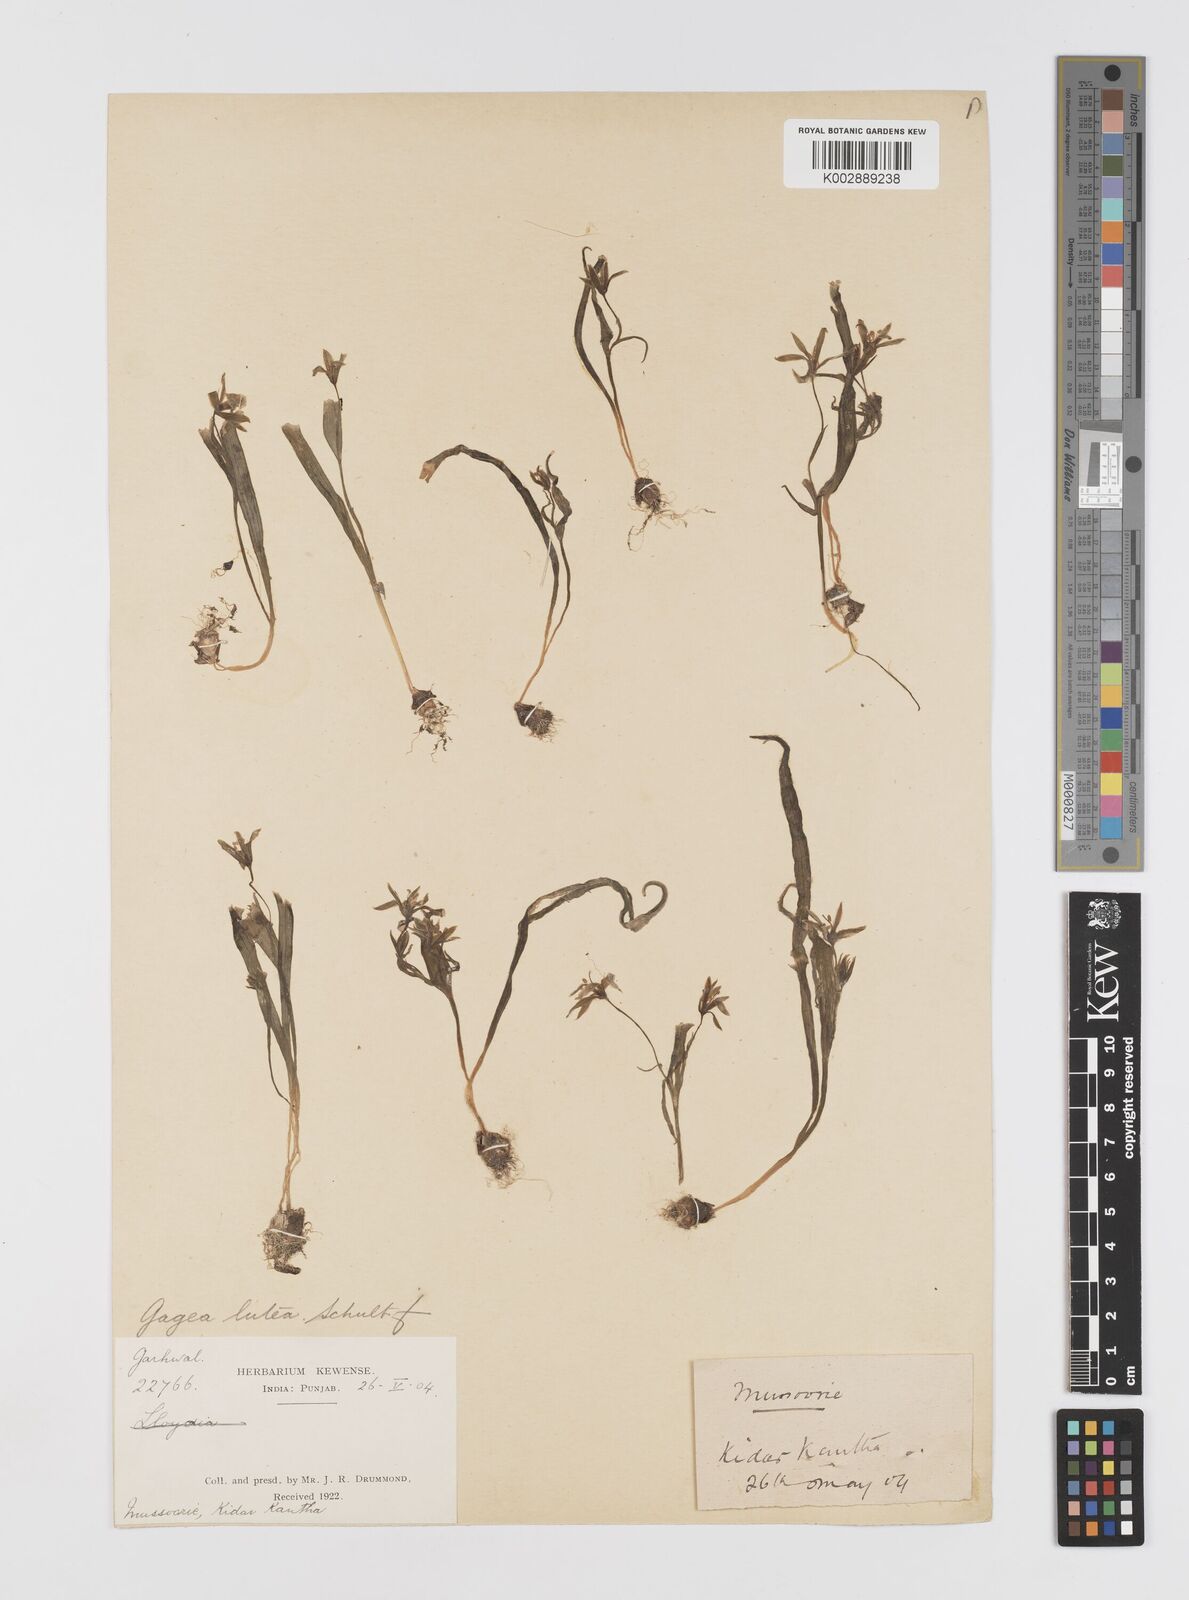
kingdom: Plantae
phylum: Tracheophyta
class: Liliopsida
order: Liliales
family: Liliaceae
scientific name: Liliaceae
